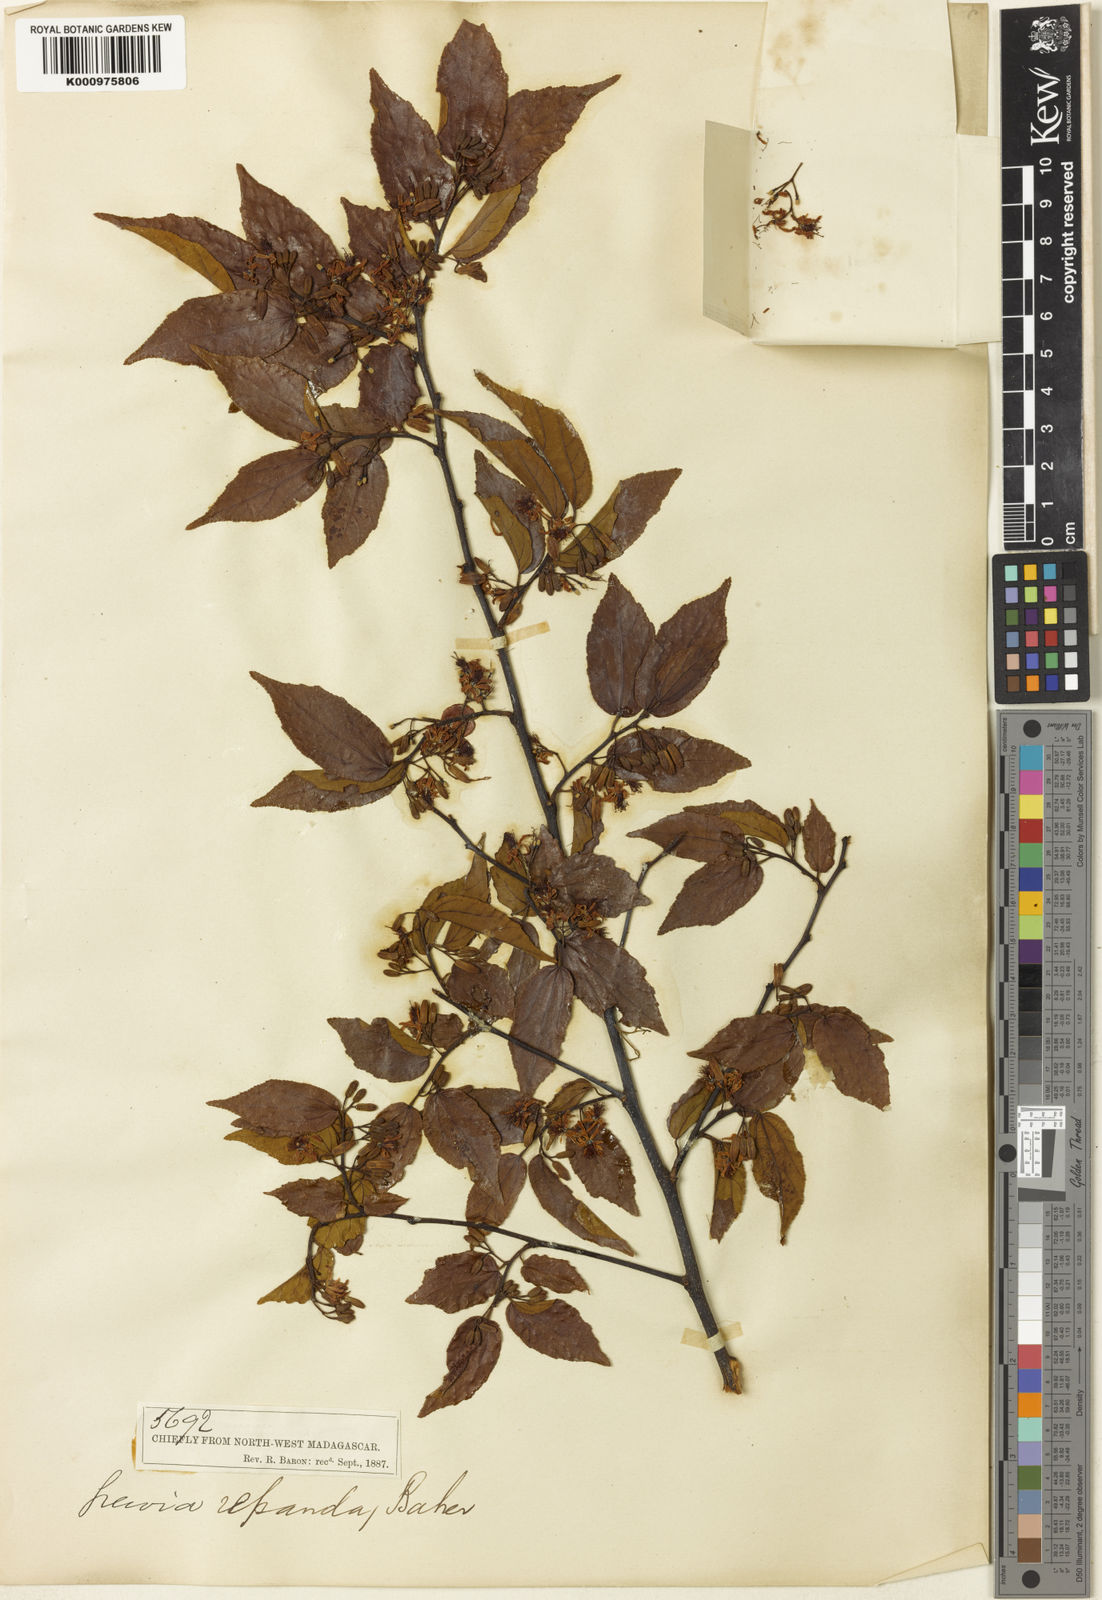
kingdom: Plantae
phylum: Tracheophyta
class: Magnoliopsida
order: Malvales
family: Malvaceae
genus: Grewia
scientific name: Grewia lavanalensis
